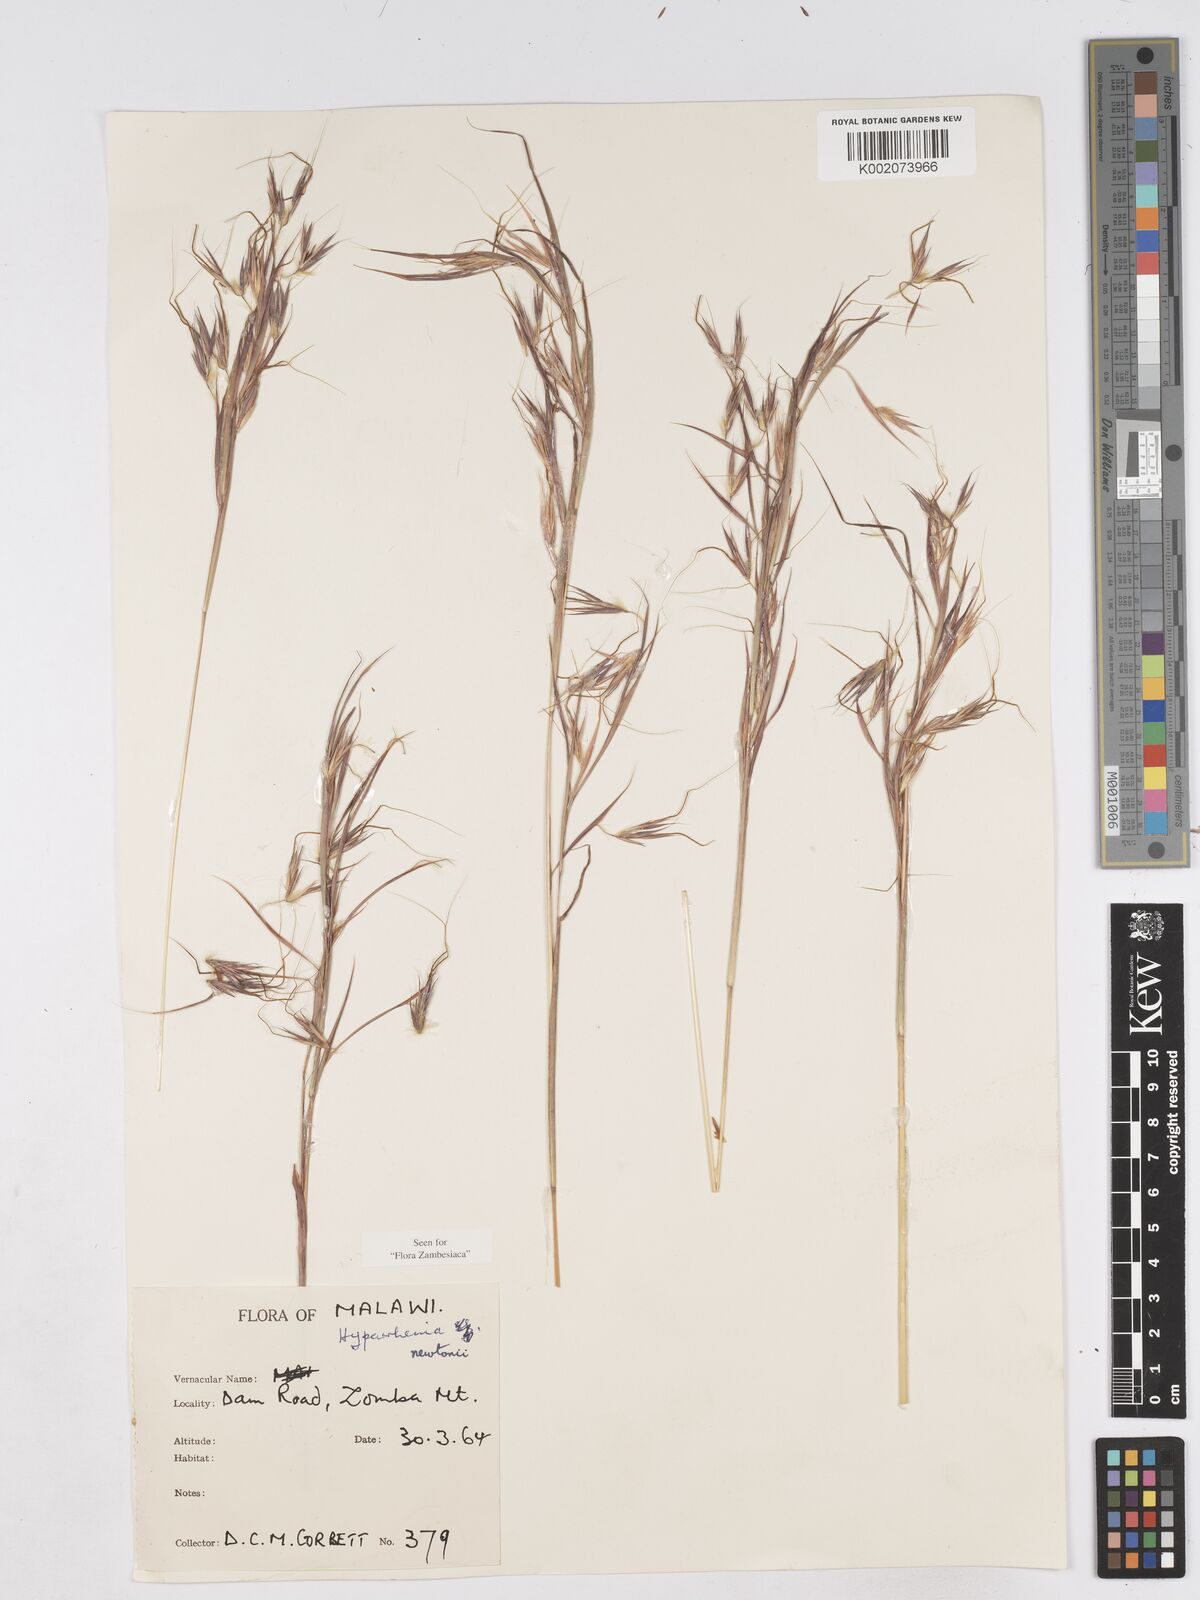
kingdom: Plantae
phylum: Tracheophyta
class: Liliopsida
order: Poales
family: Poaceae
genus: Hyparrhenia
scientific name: Hyparrhenia newtonii
